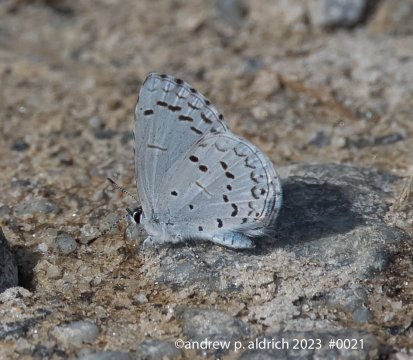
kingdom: Animalia
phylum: Arthropoda
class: Insecta
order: Lepidoptera
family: Lycaenidae
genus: Celastrina
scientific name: Celastrina ladon
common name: Spring Azure
